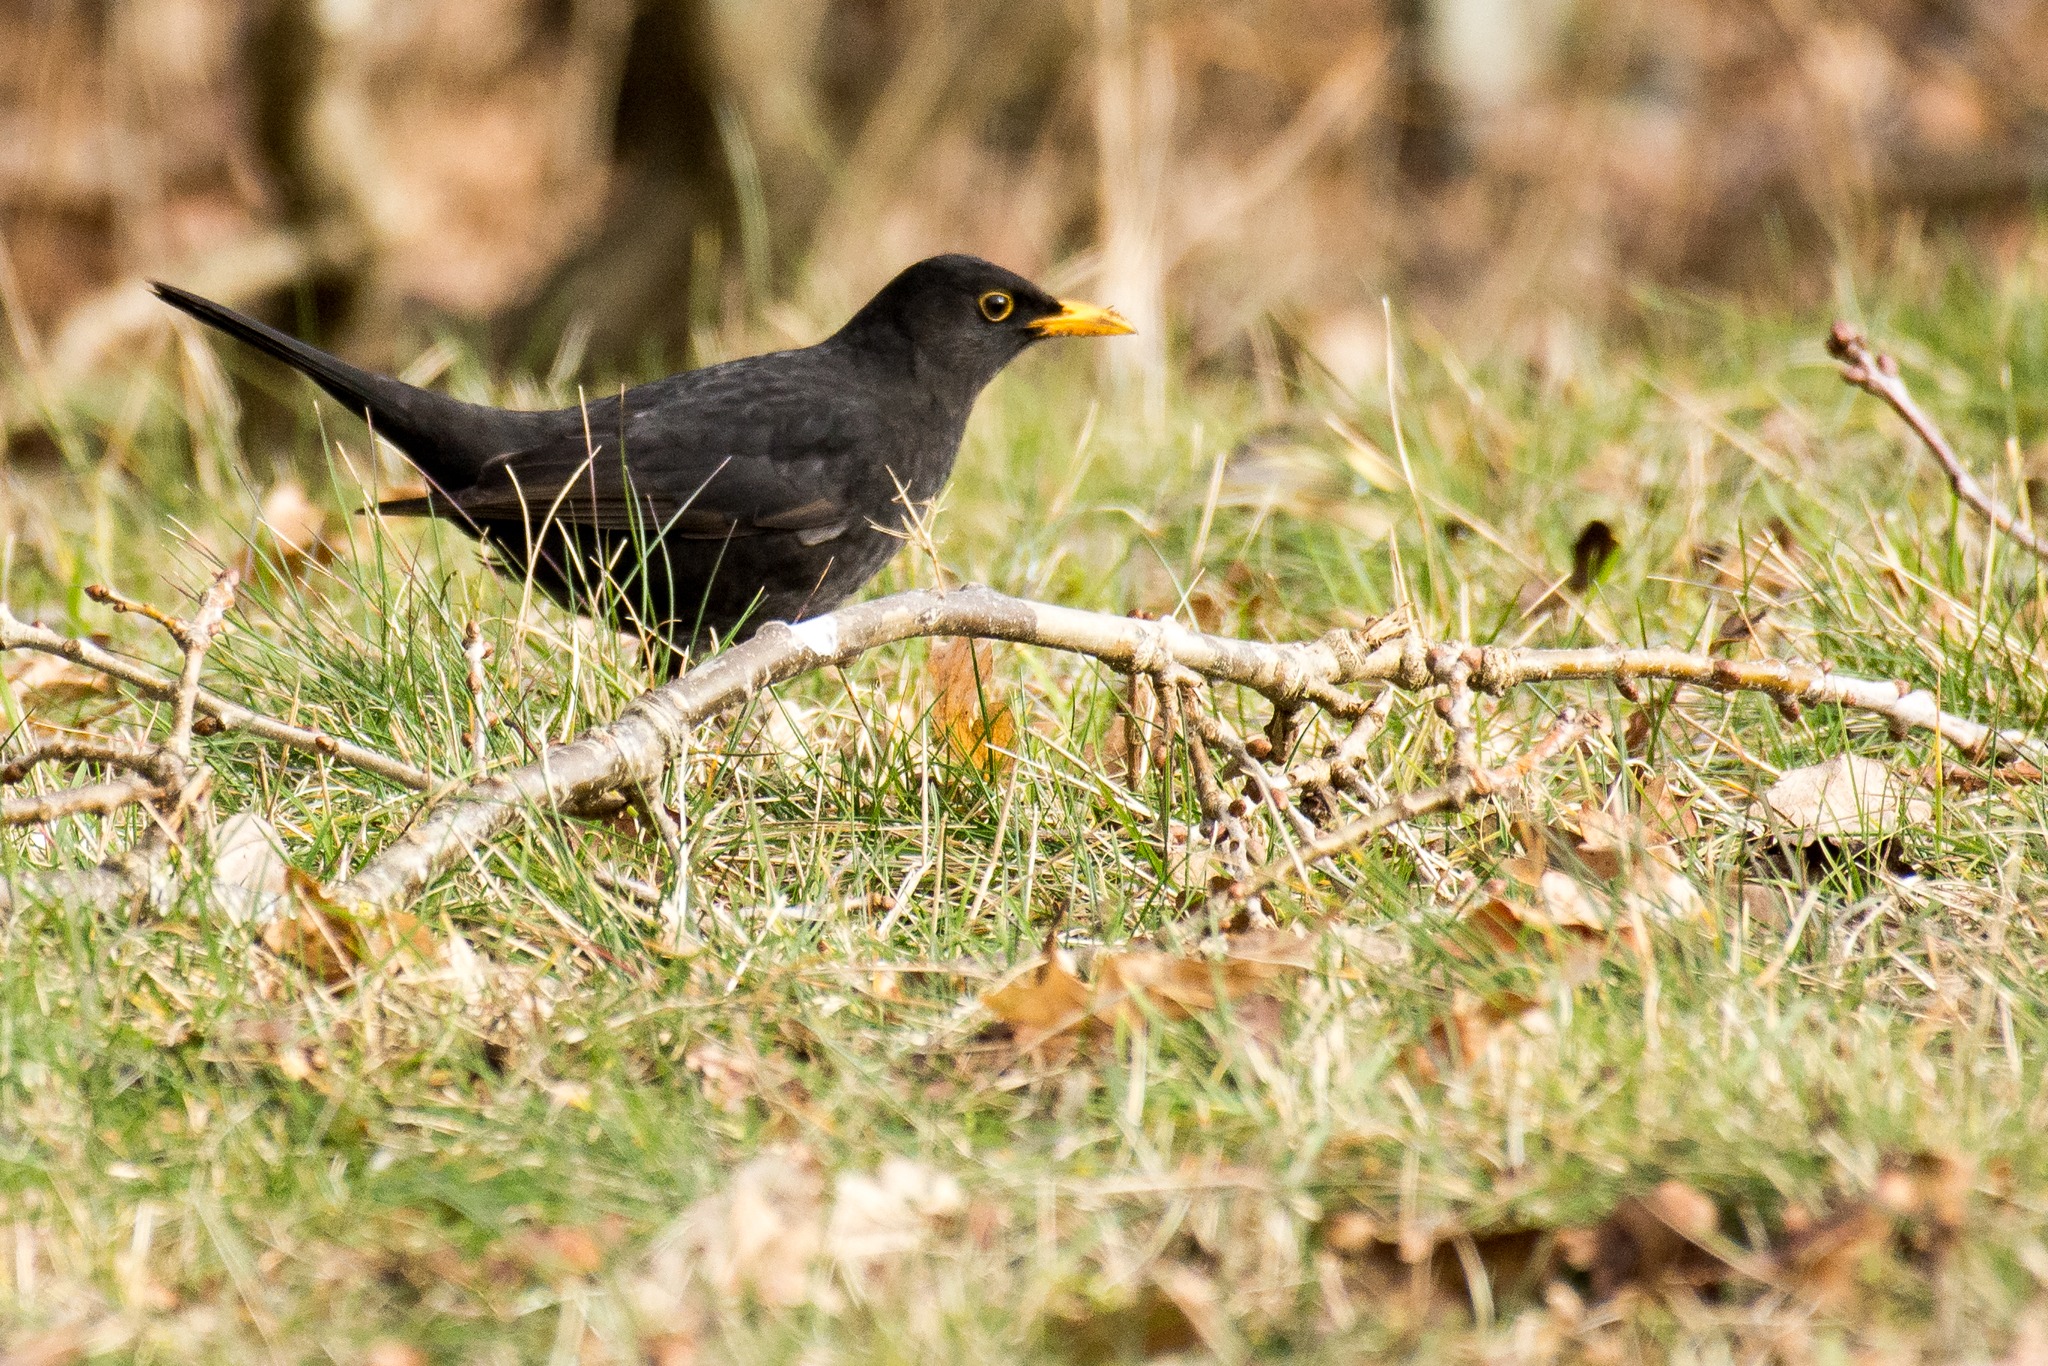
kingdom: Animalia
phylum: Chordata
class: Aves
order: Passeriformes
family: Turdidae
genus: Turdus
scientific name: Turdus merula
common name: Solsort
